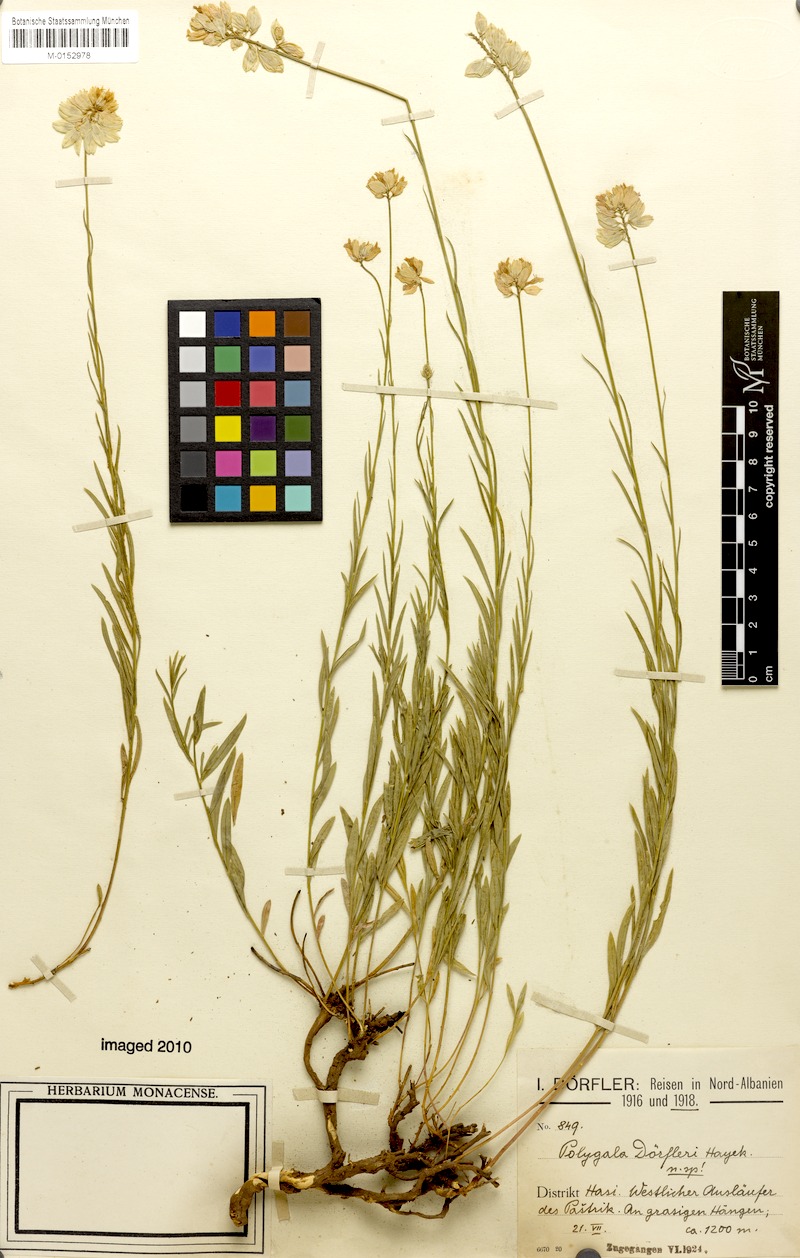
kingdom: Plantae
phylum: Tracheophyta
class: Magnoliopsida
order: Fabales
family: Polygalaceae
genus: Polygala
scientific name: Polygala doerfleri
